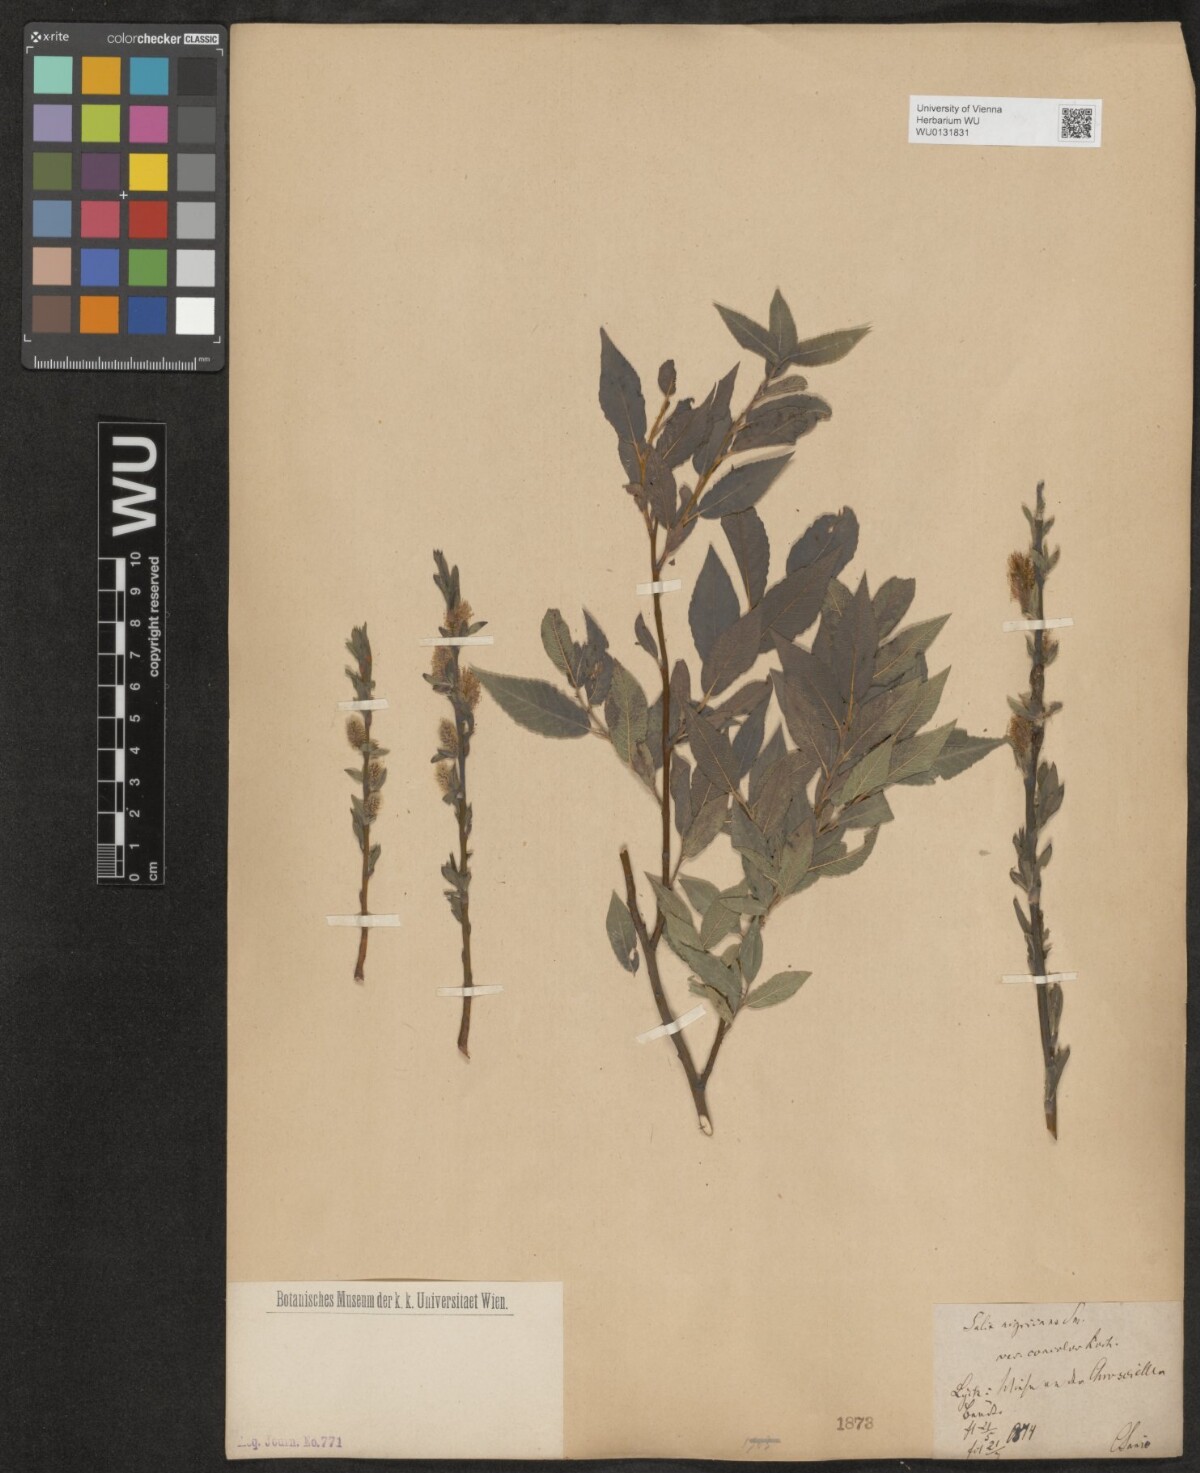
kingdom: Plantae
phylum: Tracheophyta
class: Magnoliopsida
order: Malpighiales
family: Salicaceae
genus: Salix
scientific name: Salix myrsinifolia
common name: Dark-leaved willow
